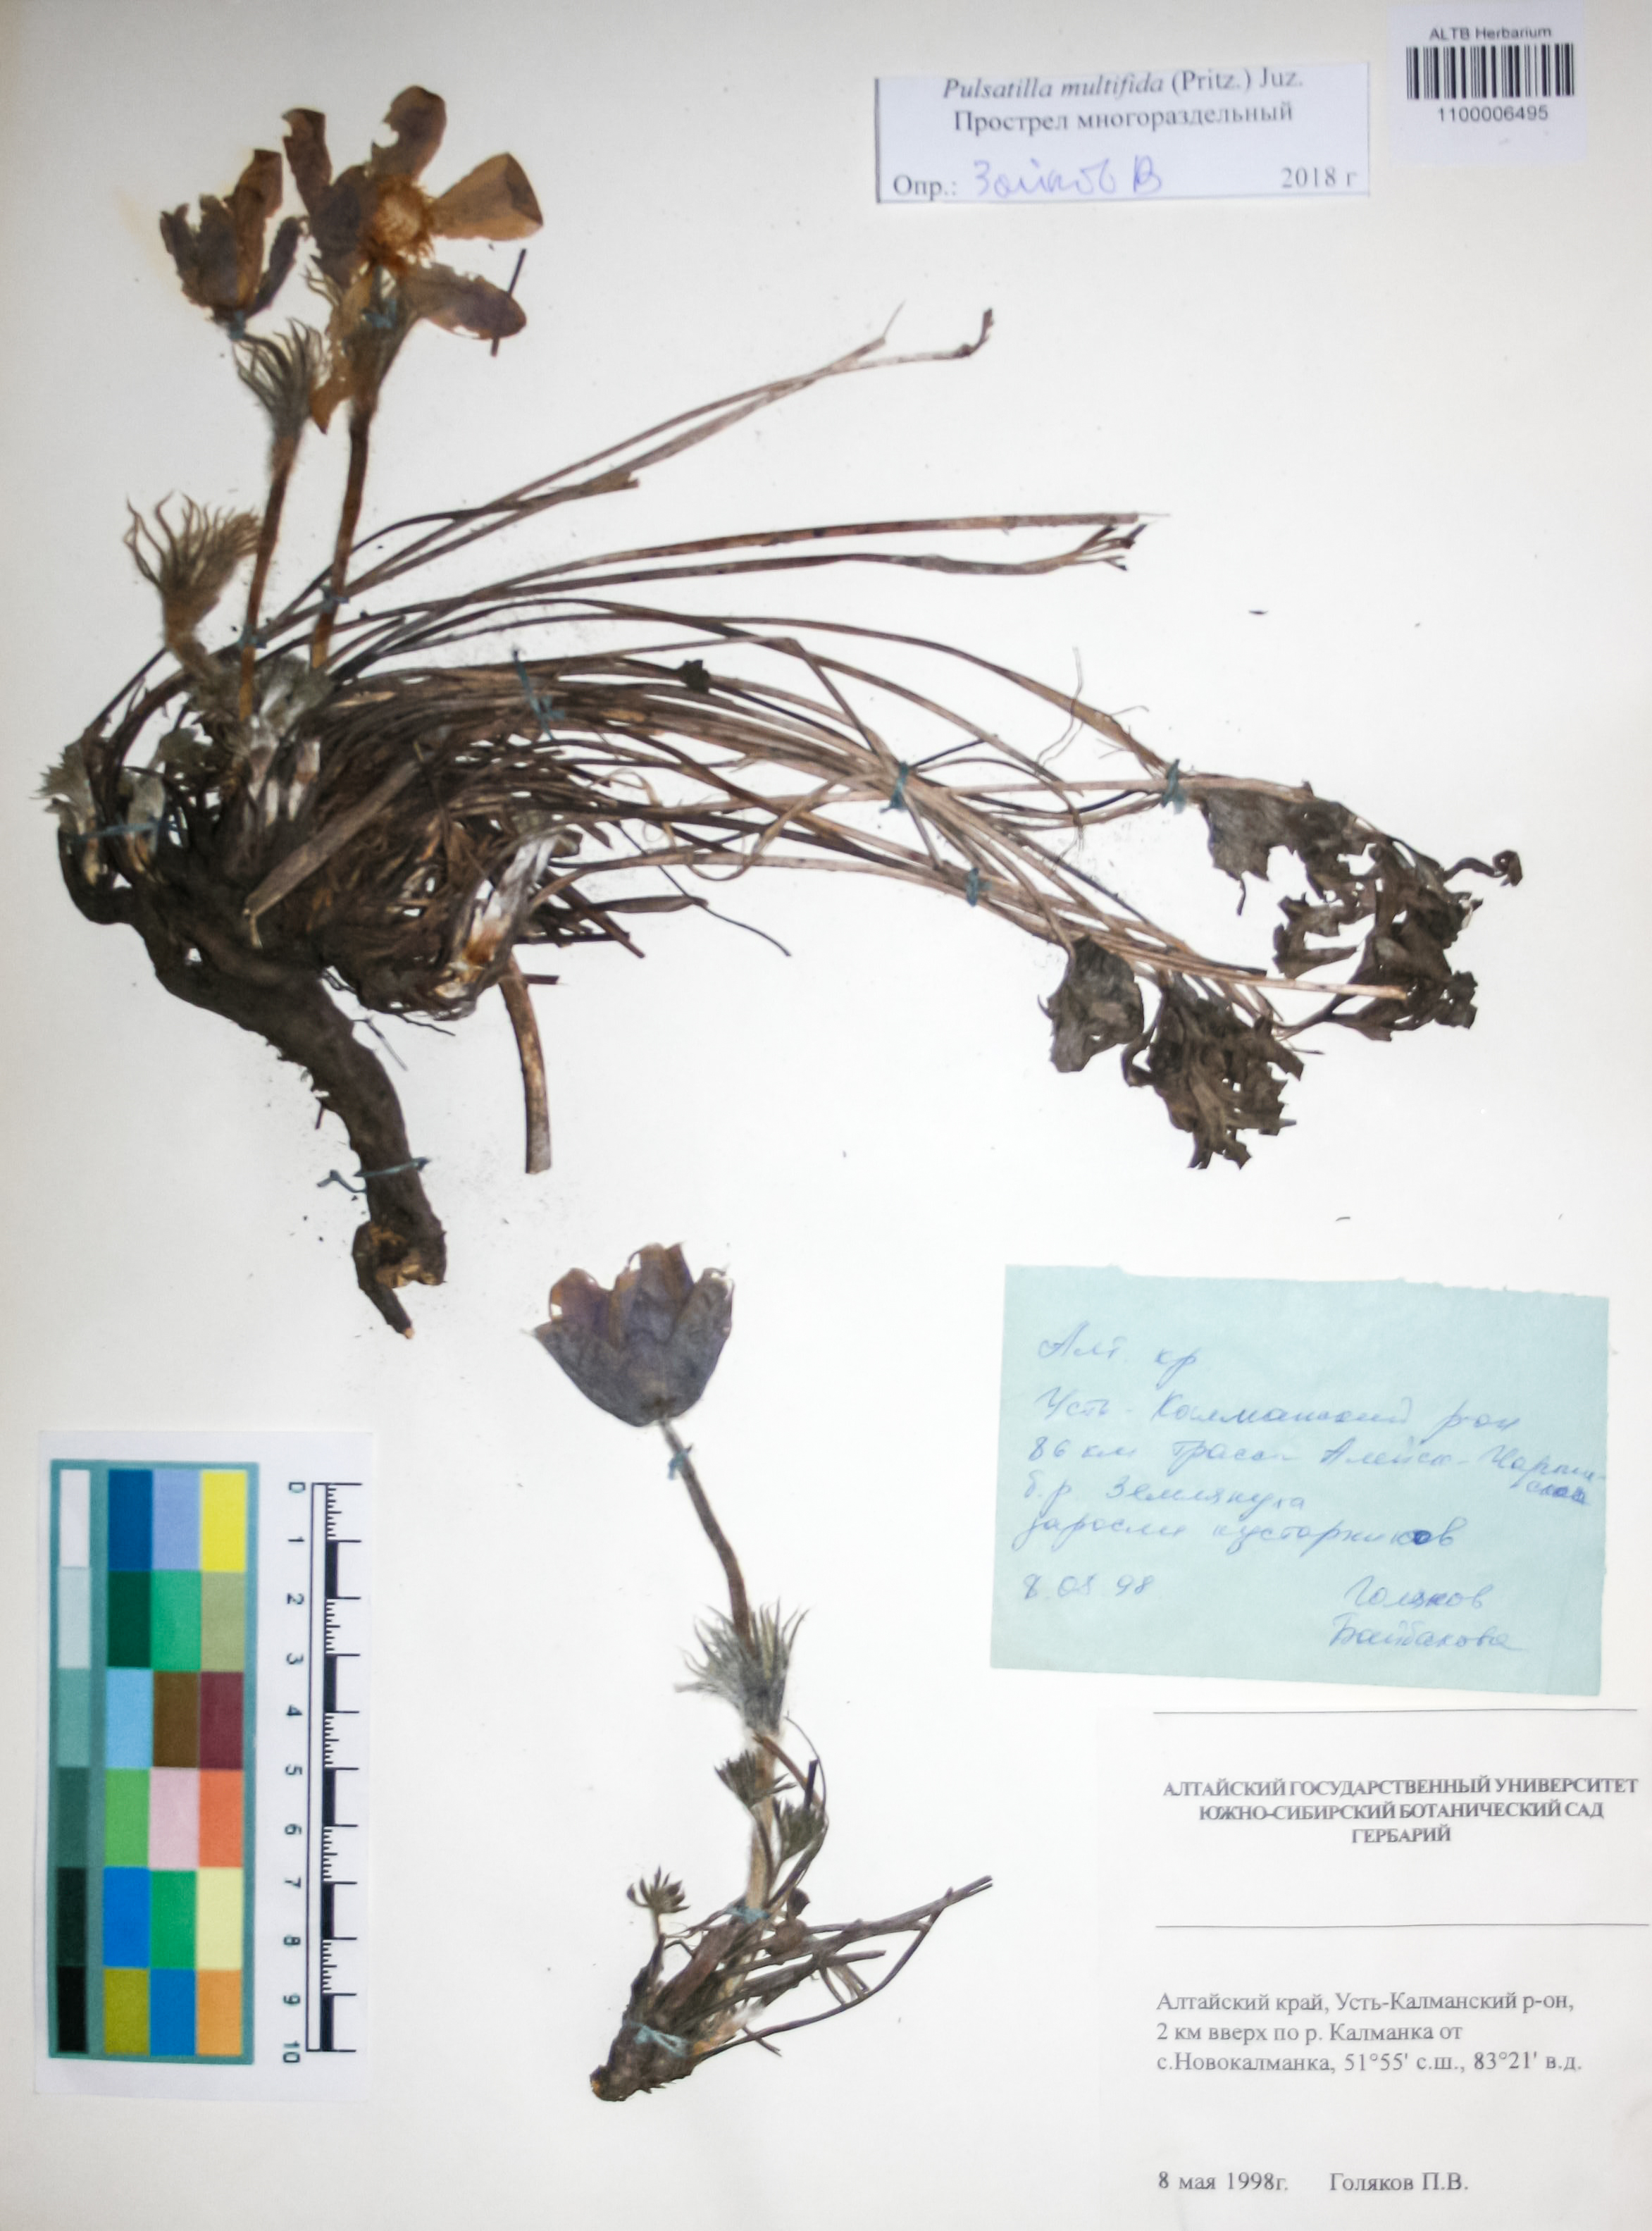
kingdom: Plantae
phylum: Tracheophyta
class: Magnoliopsida
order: Ranunculales
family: Ranunculaceae
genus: Pulsatilla
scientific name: Pulsatilla patens
